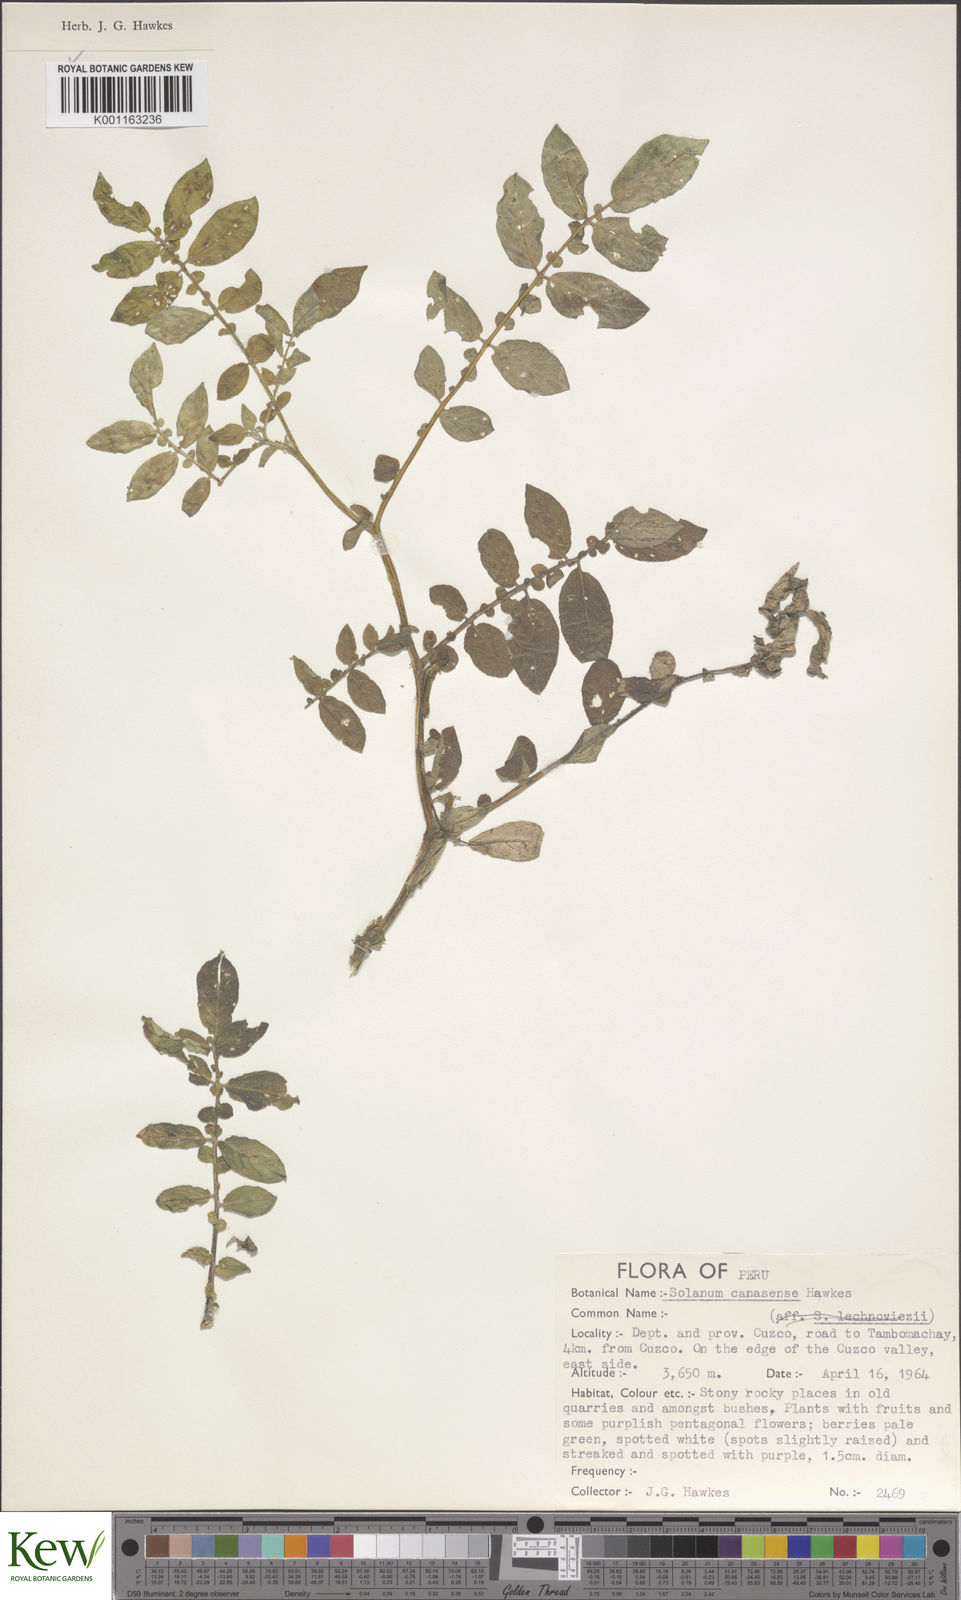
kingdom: Plantae
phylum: Tracheophyta
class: Magnoliopsida
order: Solanales
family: Solanaceae
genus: Solanum
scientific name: Solanum candolleanum
